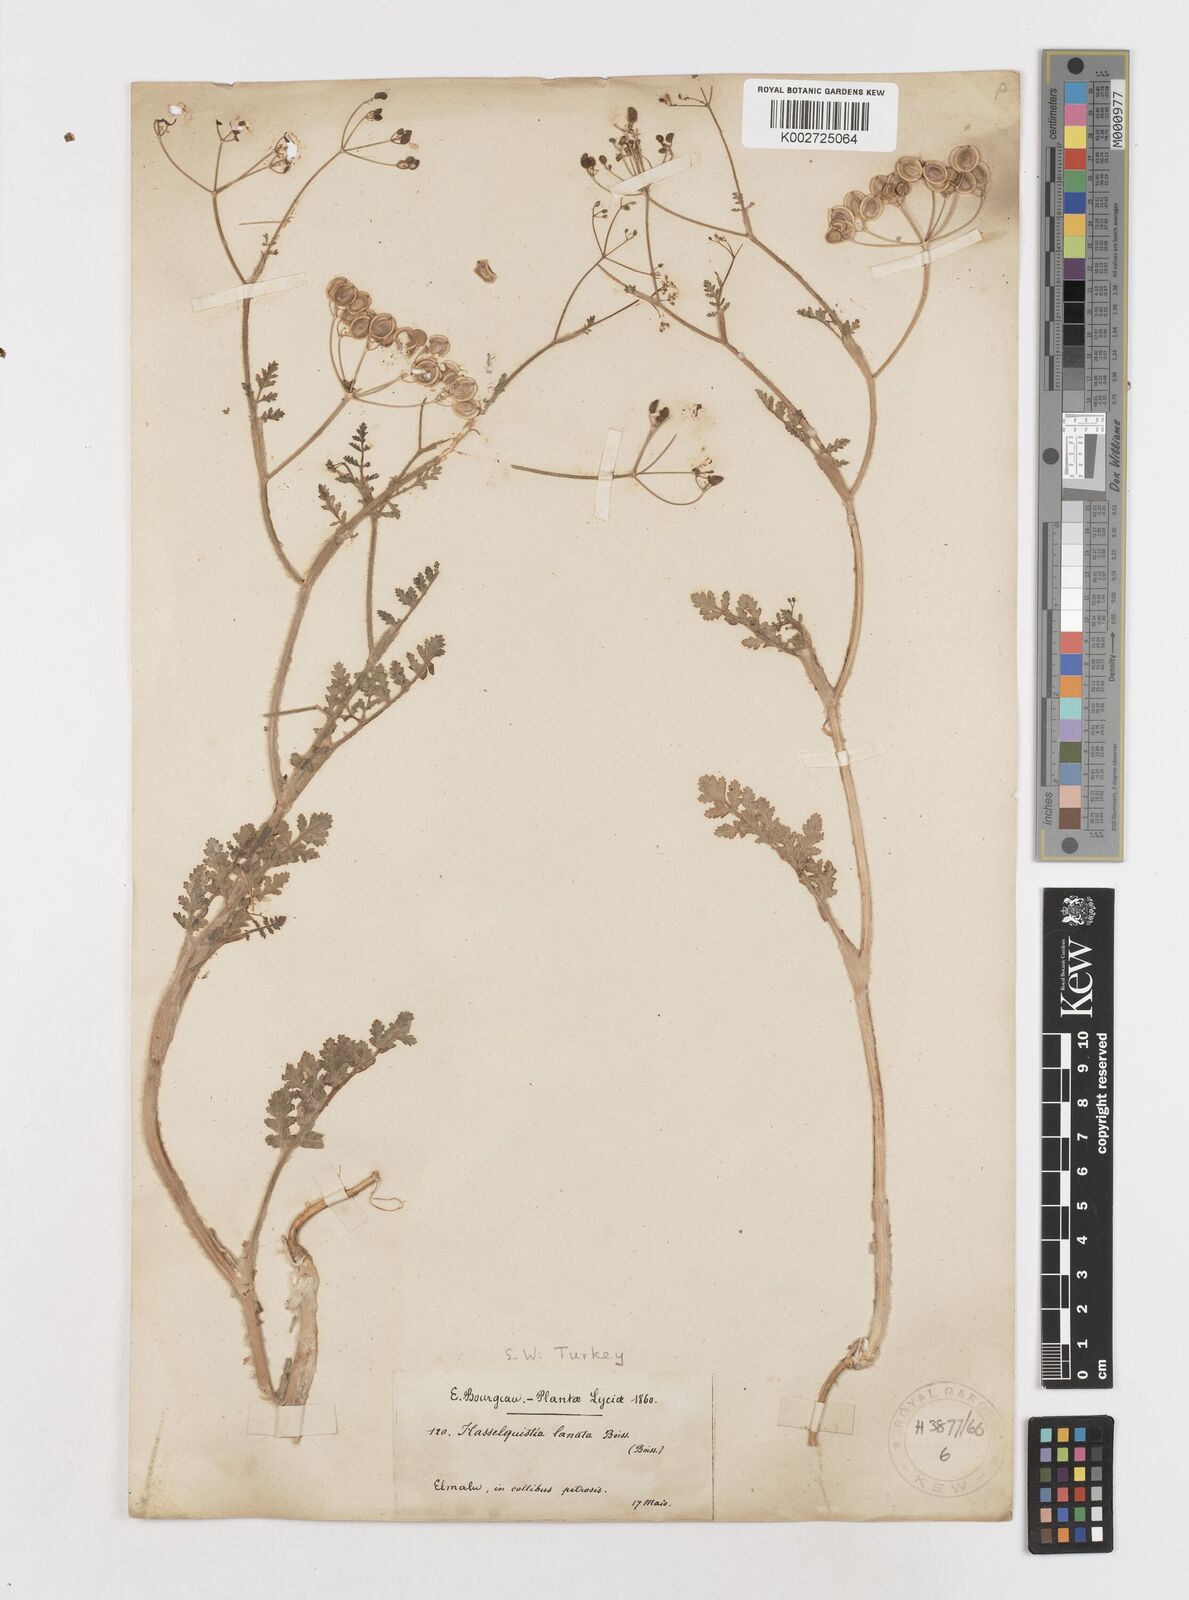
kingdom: Plantae
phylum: Tracheophyta
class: Magnoliopsida
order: Apiales
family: Apiaceae
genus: Tordylium
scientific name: Tordylium lanatum
